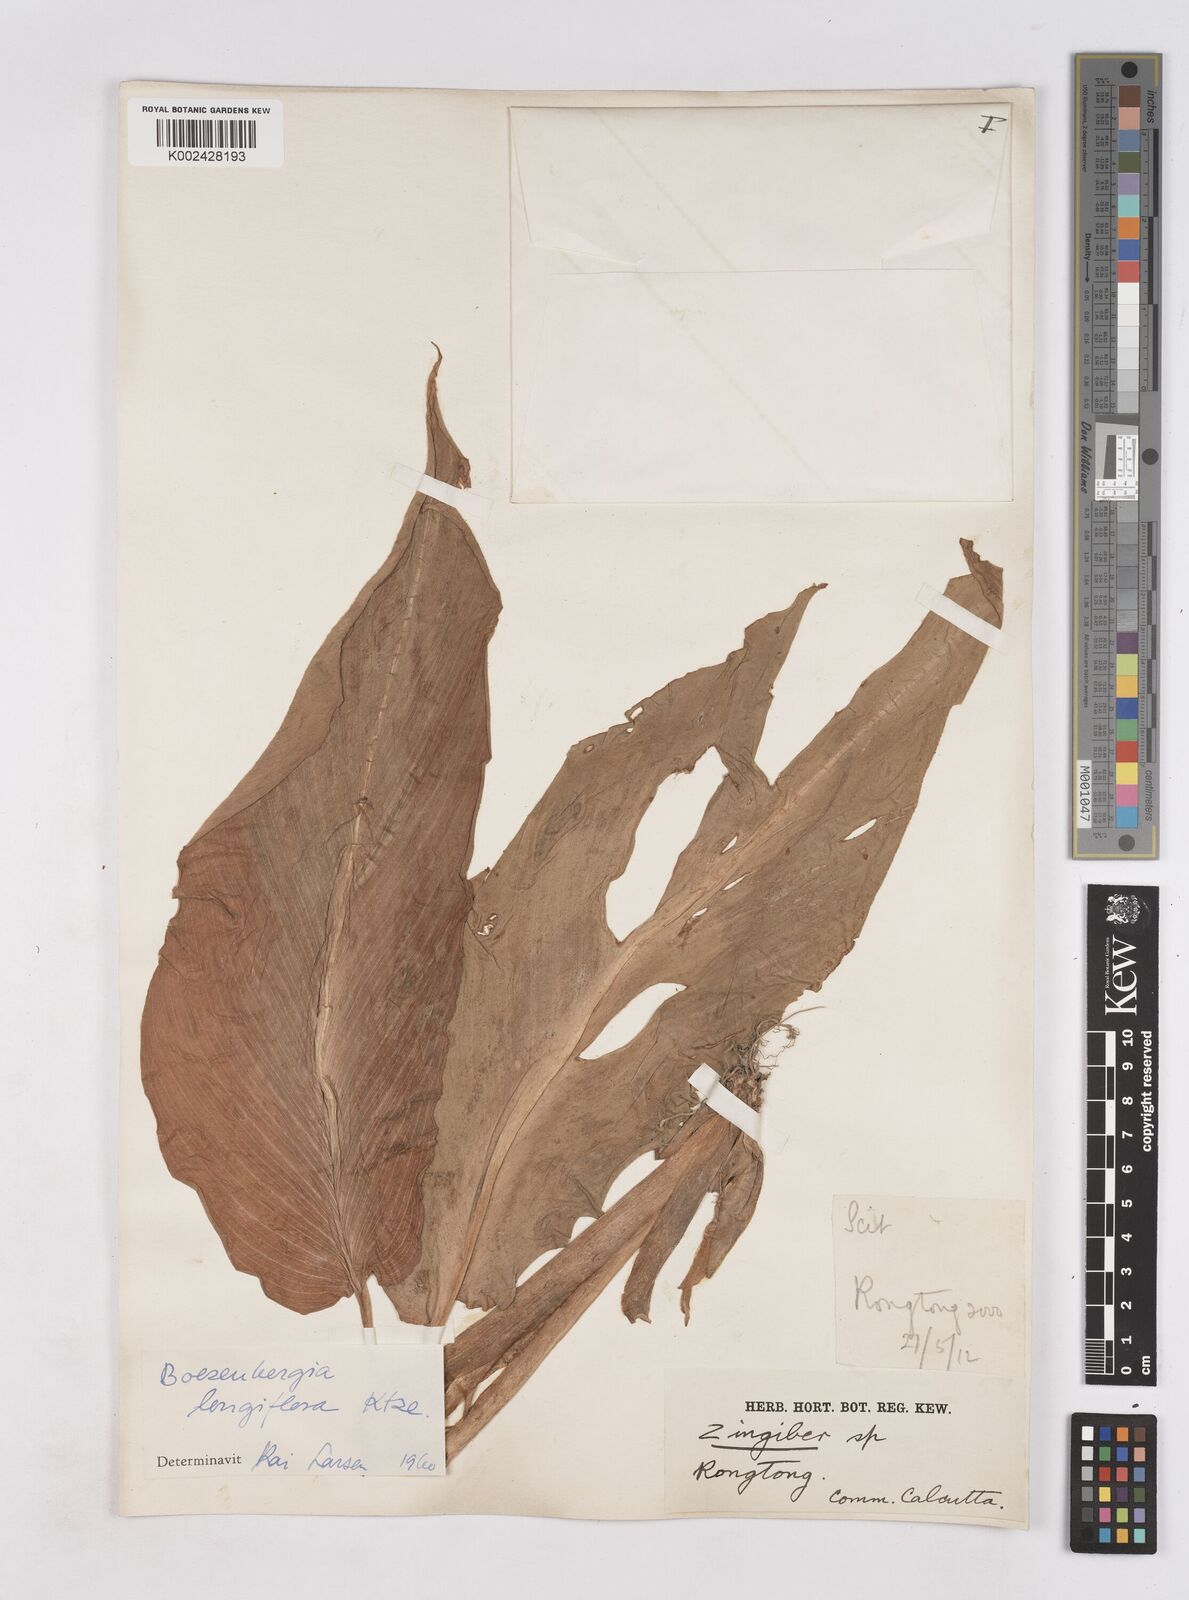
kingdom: Plantae
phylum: Tracheophyta
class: Liliopsida
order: Zingiberales
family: Zingiberaceae
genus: Boesenbergia
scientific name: Boesenbergia longiflora
